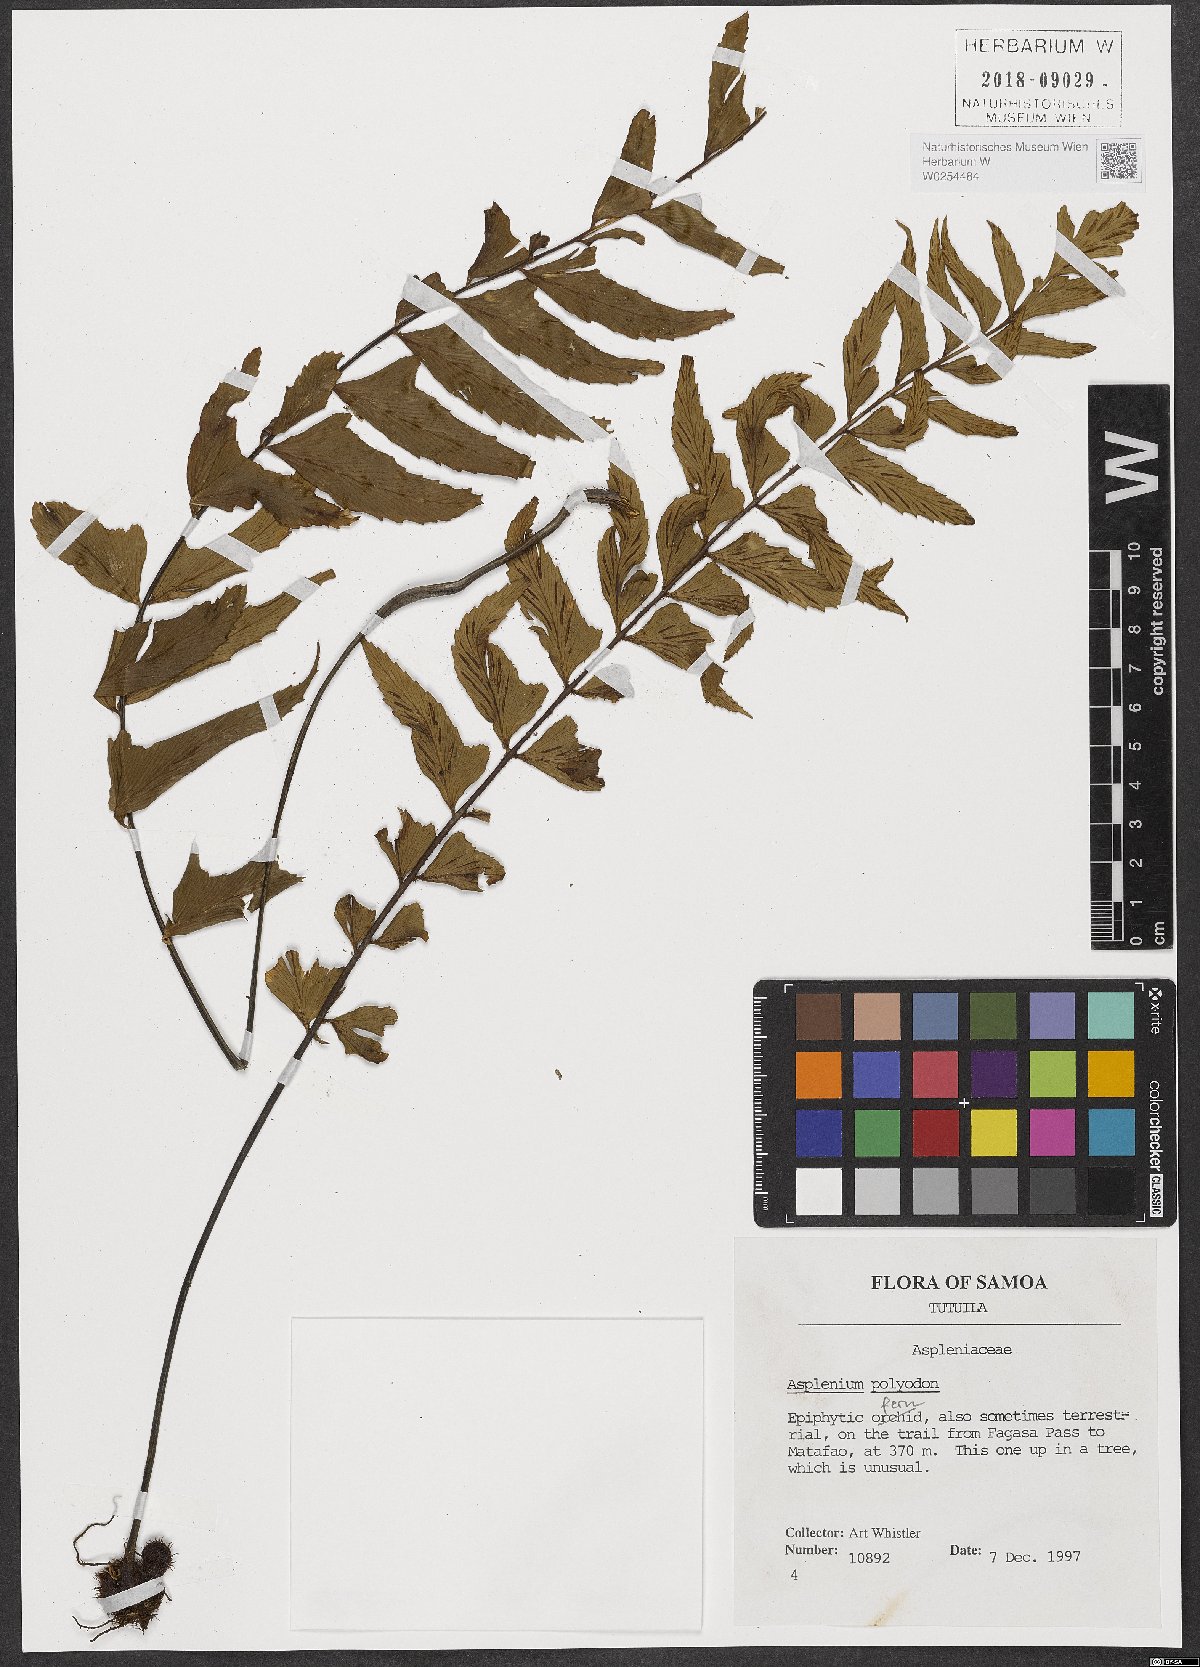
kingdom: Plantae
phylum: Tracheophyta
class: Polypodiopsida
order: Polypodiales
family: Aspleniaceae
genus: Asplenium
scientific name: Asplenium polyodon
